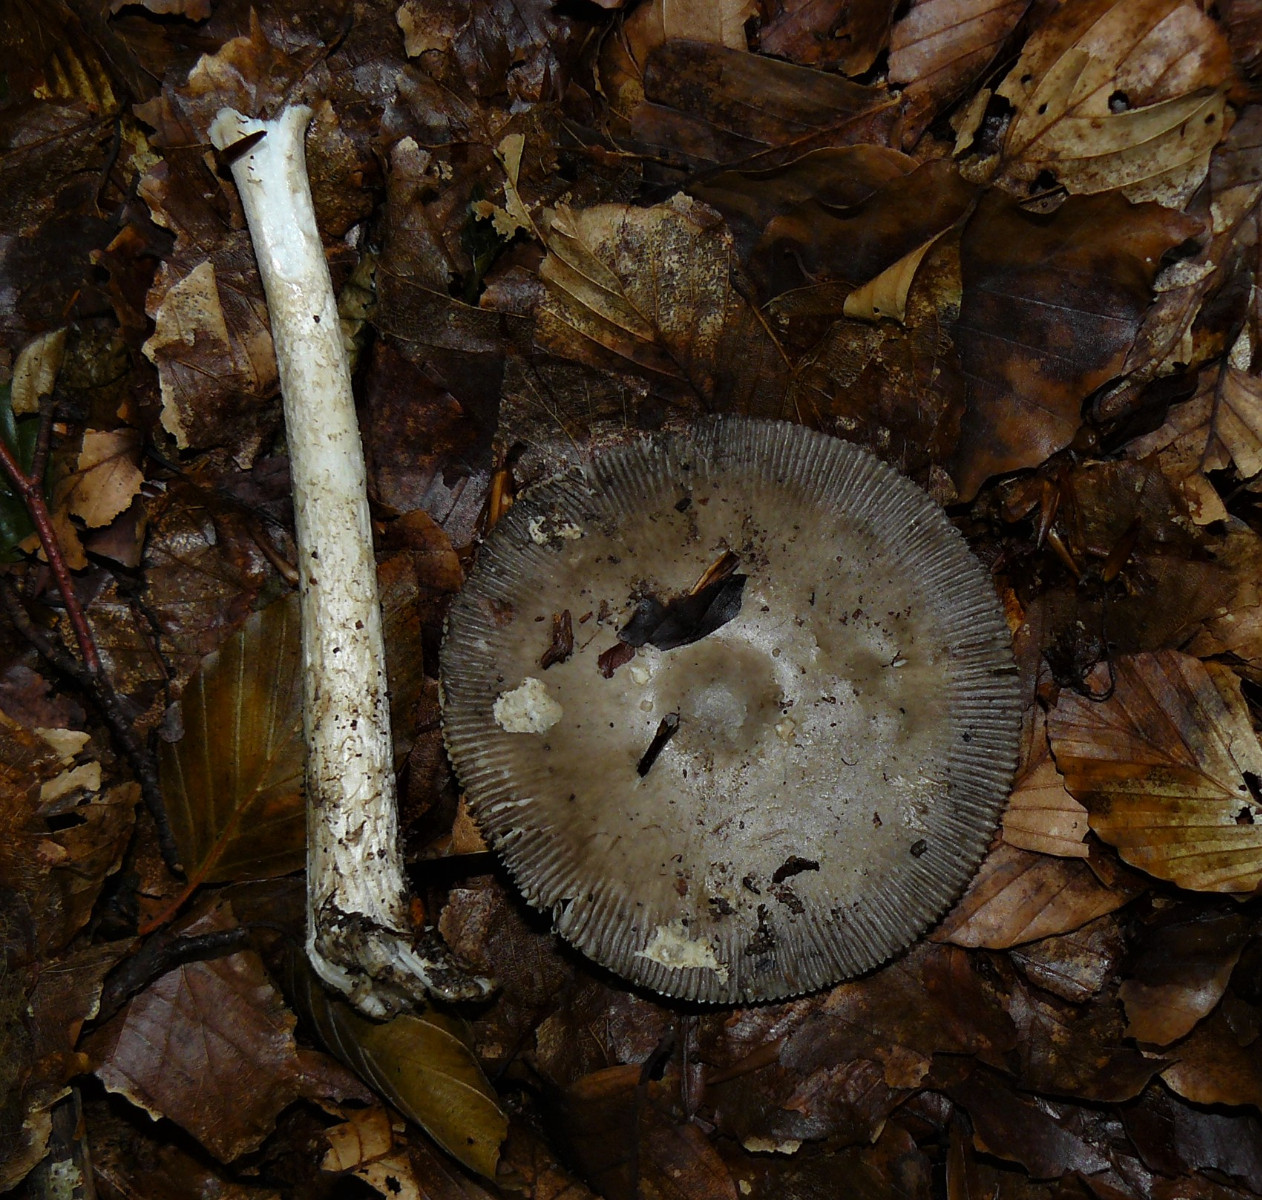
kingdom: Fungi
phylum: Basidiomycota
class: Agaricomycetes
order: Agaricales
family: Amanitaceae
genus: Amanita
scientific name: Amanita
